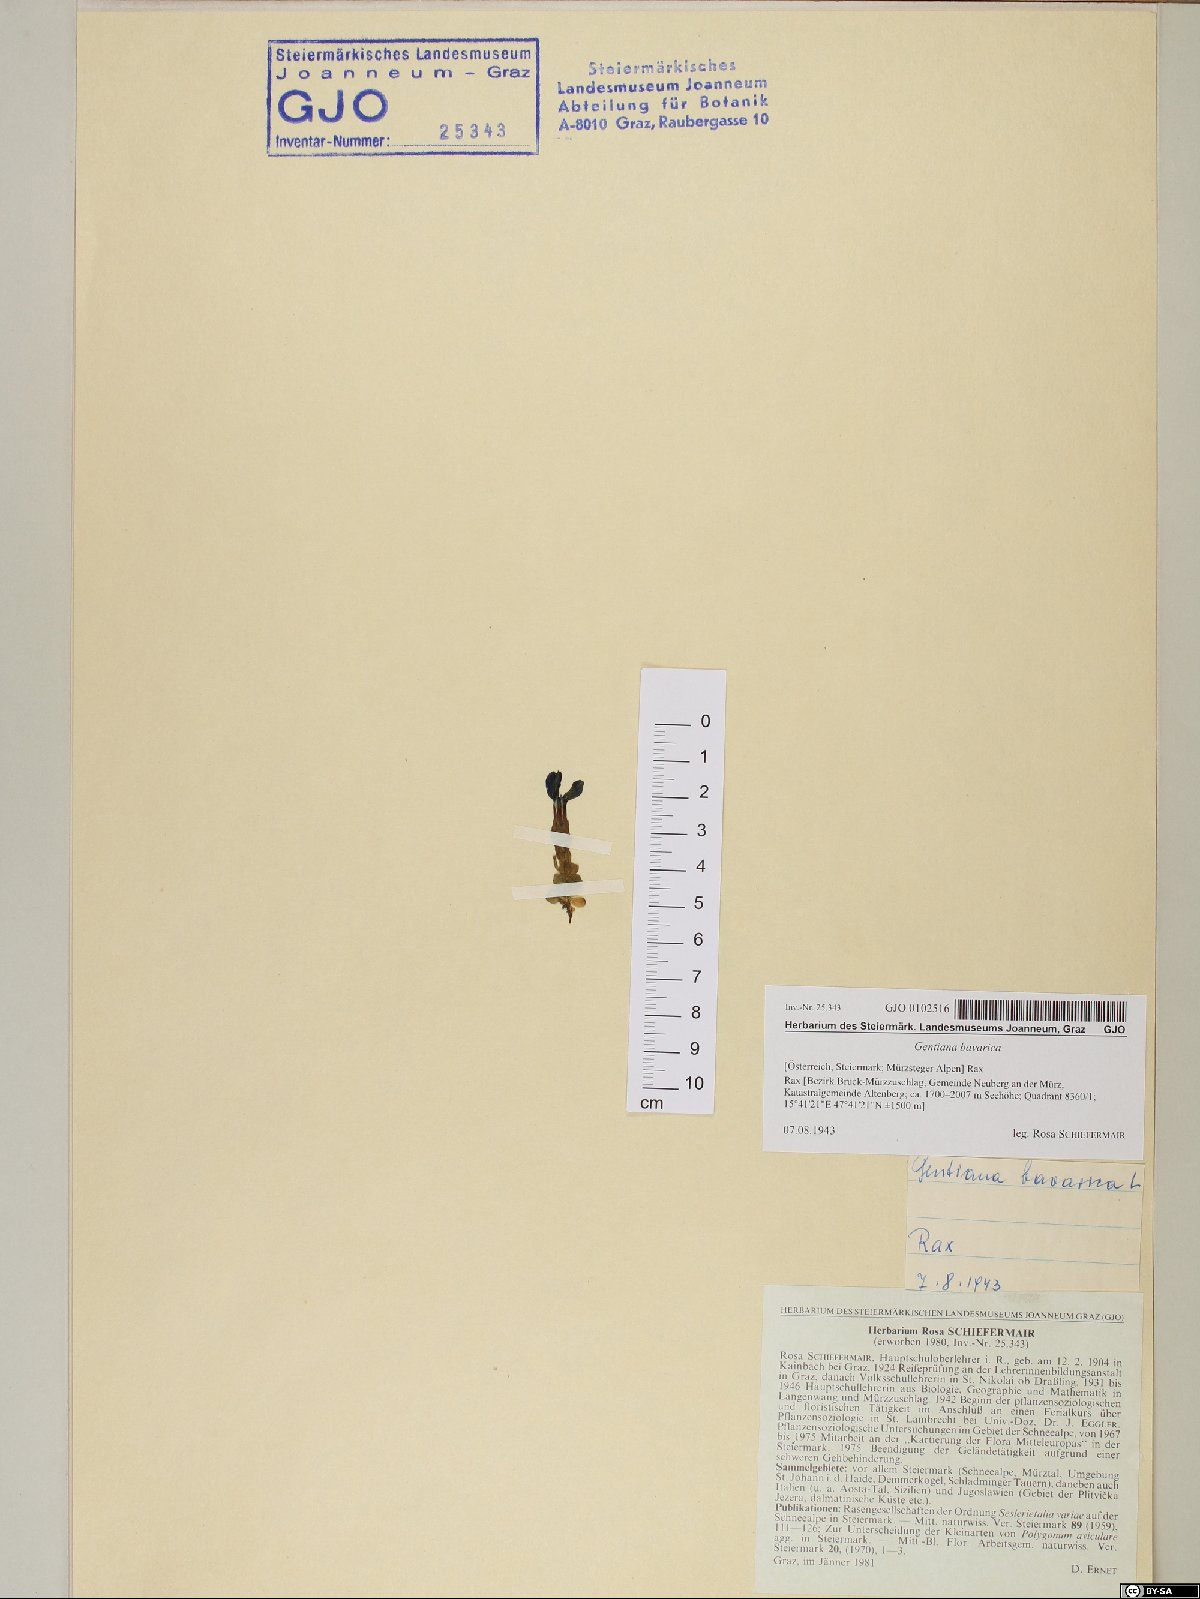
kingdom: Plantae
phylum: Tracheophyta
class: Magnoliopsida
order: Gentianales
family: Gentianaceae
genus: Gentiana
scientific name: Gentiana bavarica
